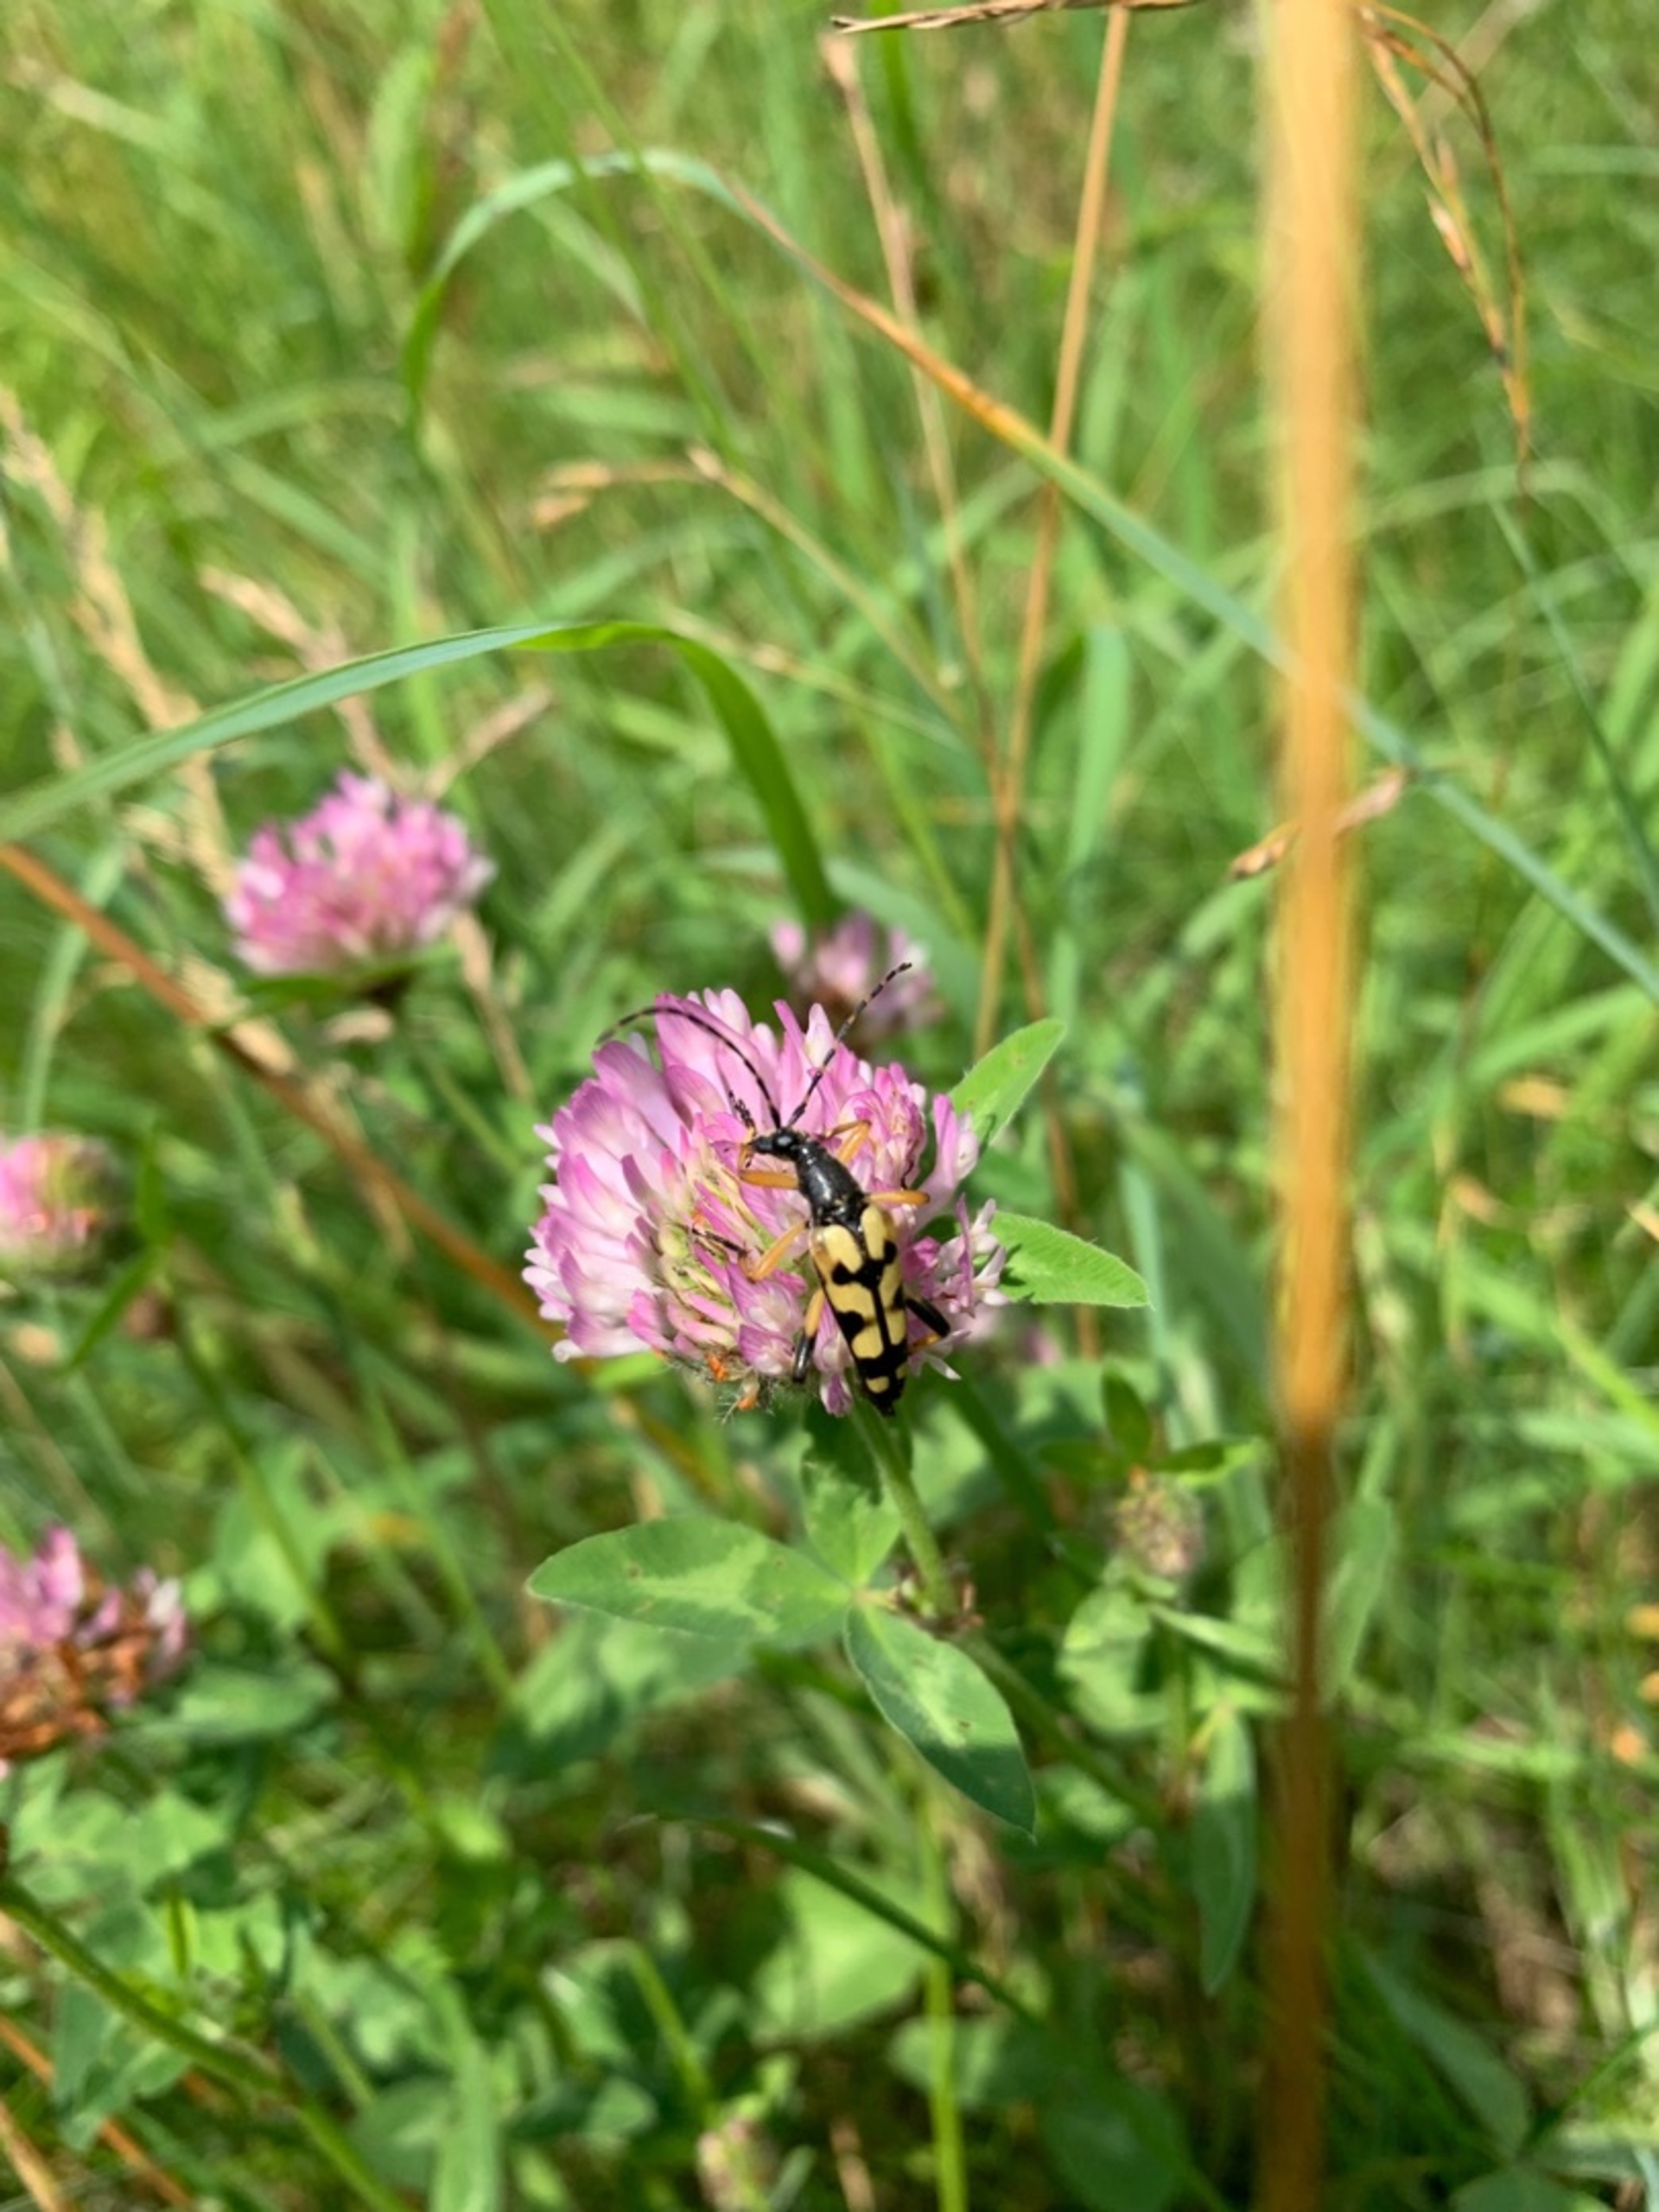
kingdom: Animalia
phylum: Arthropoda
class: Insecta
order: Coleoptera
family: Cerambycidae
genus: Rutpela
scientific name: Rutpela maculata
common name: Sydlig blomsterbuk
